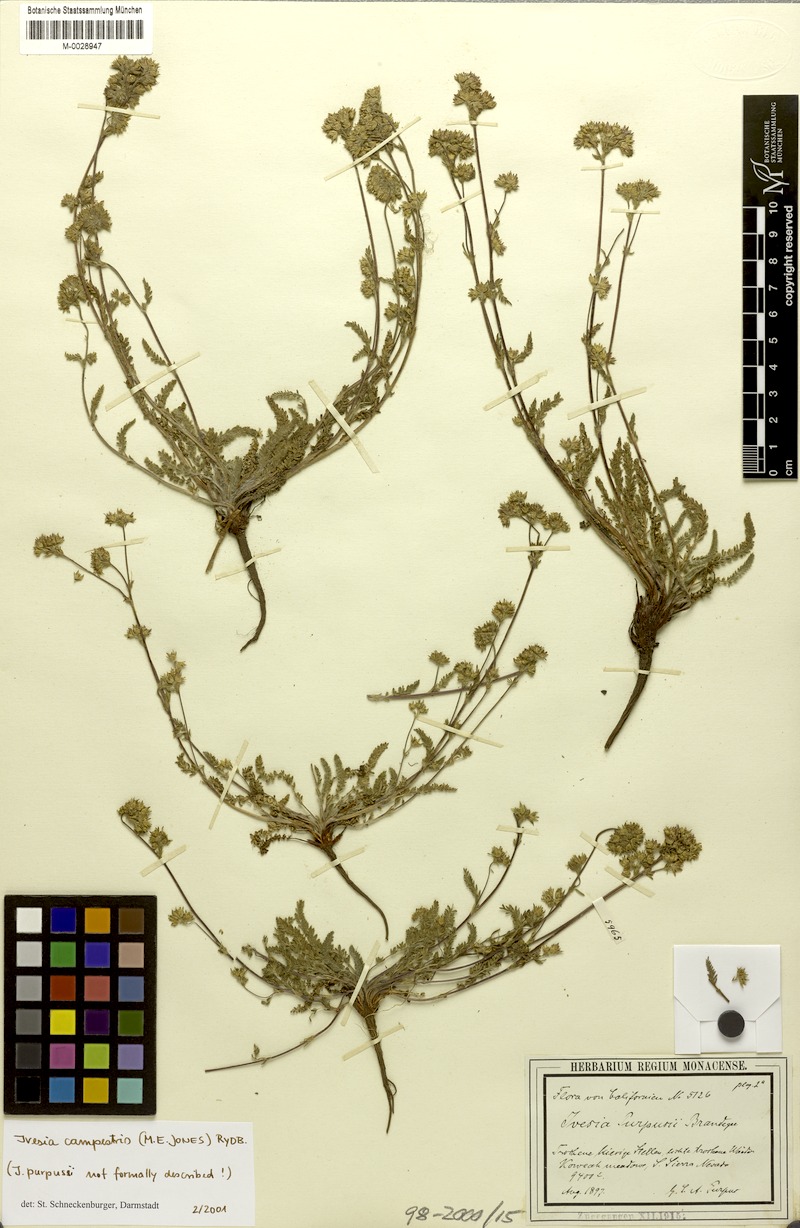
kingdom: Plantae
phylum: Tracheophyta
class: Magnoliopsida
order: Rosales
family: Rosaceae
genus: Potentilla
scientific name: Potentilla campestris
